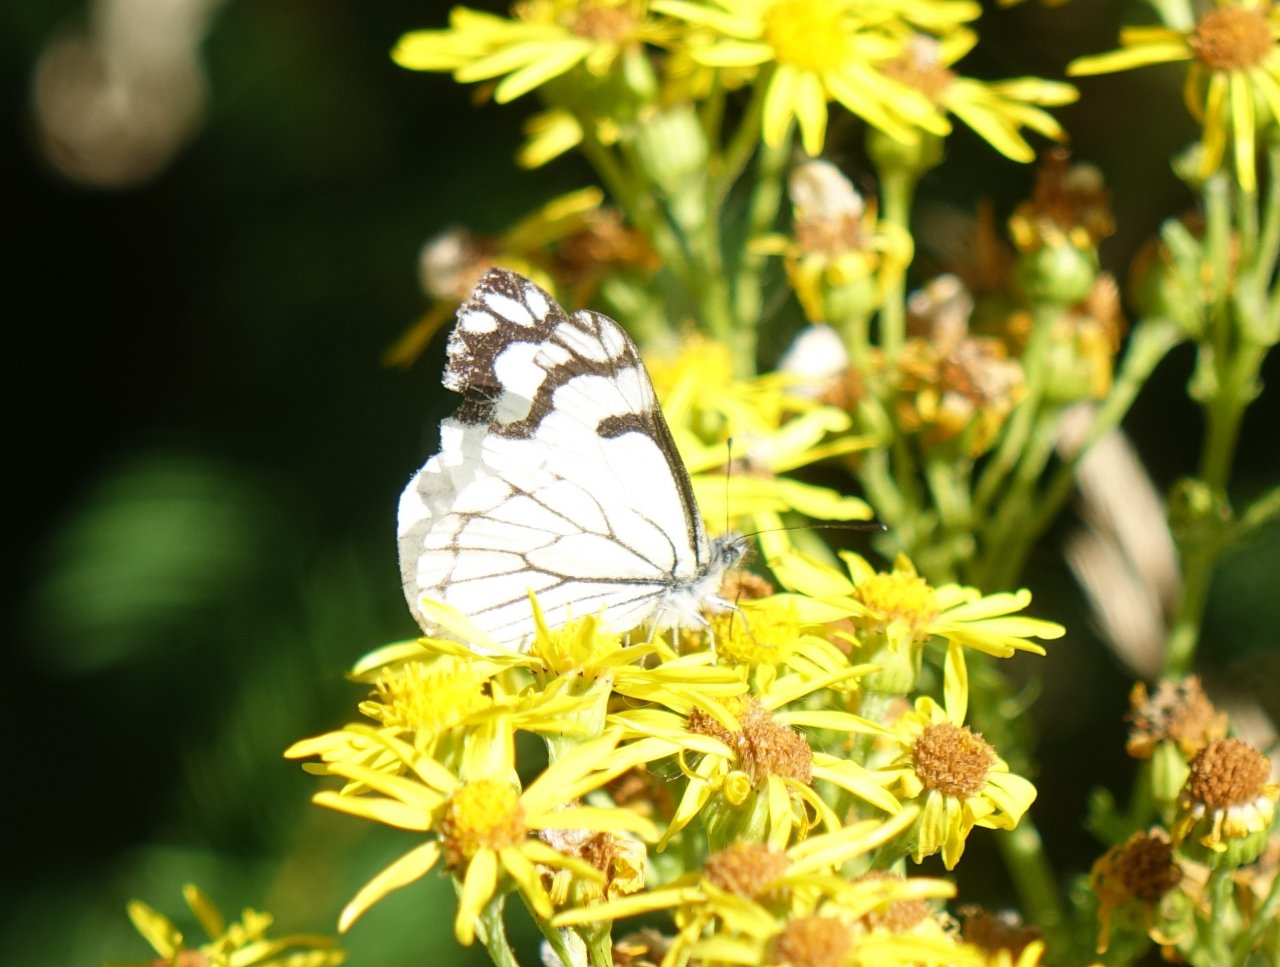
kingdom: Animalia
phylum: Arthropoda
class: Insecta
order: Lepidoptera
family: Pieridae
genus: Neophasia
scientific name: Neophasia menapia
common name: Pine White
